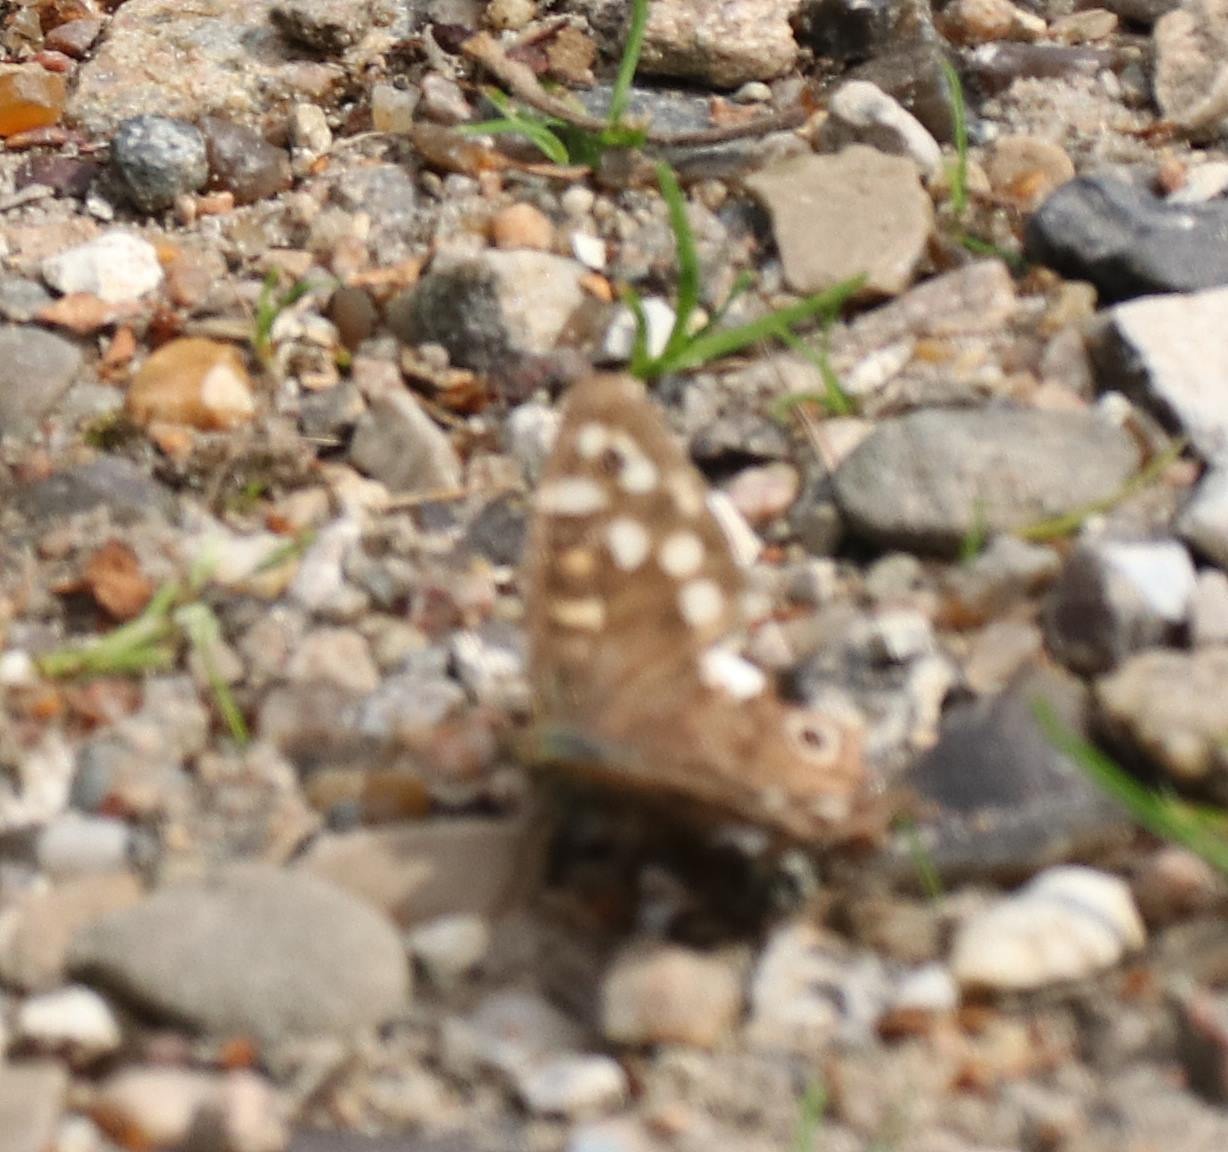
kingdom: Animalia
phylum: Arthropoda
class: Insecta
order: Lepidoptera
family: Nymphalidae
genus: Pararge
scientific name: Pararge aegeria
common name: Skovrandøje
